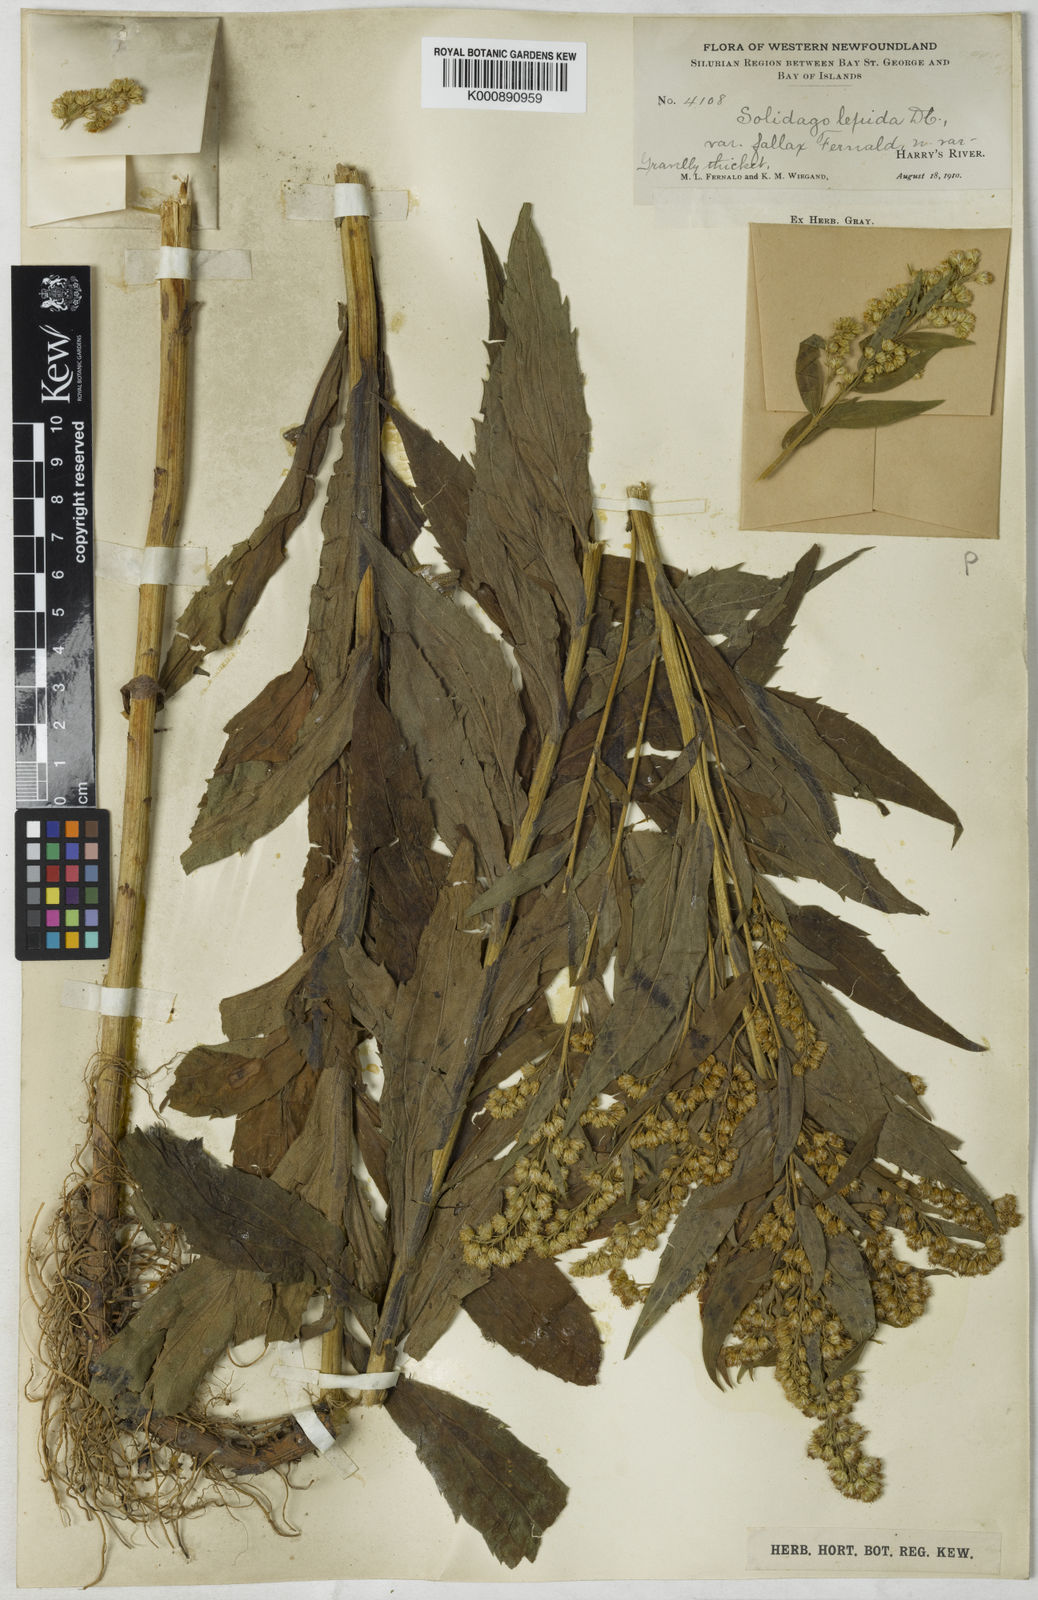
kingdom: Plantae
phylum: Tracheophyta
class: Magnoliopsida
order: Asterales
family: Asteraceae
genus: Solidago
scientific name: Solidago fallax
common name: Big-toothed canada goldenrod
